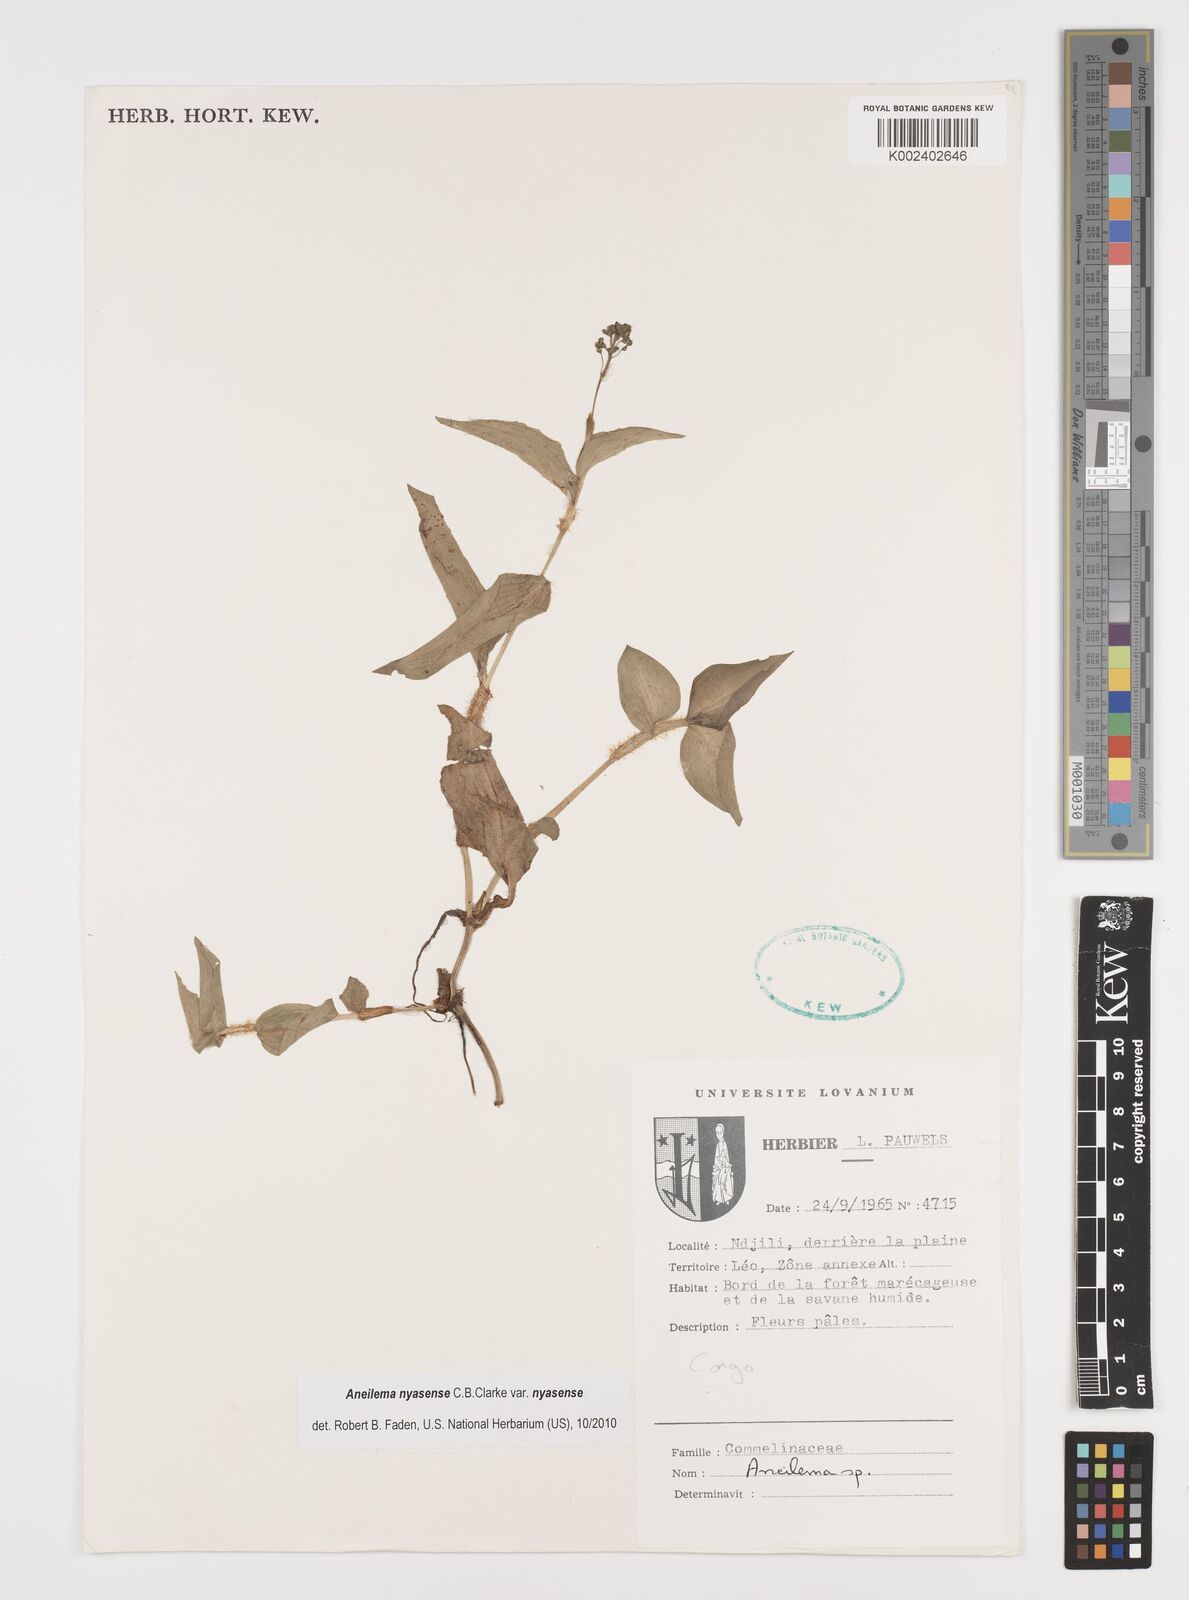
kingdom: Plantae
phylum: Tracheophyta
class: Liliopsida
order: Commelinales
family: Commelinaceae
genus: Aneilema
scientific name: Aneilema nyasense
